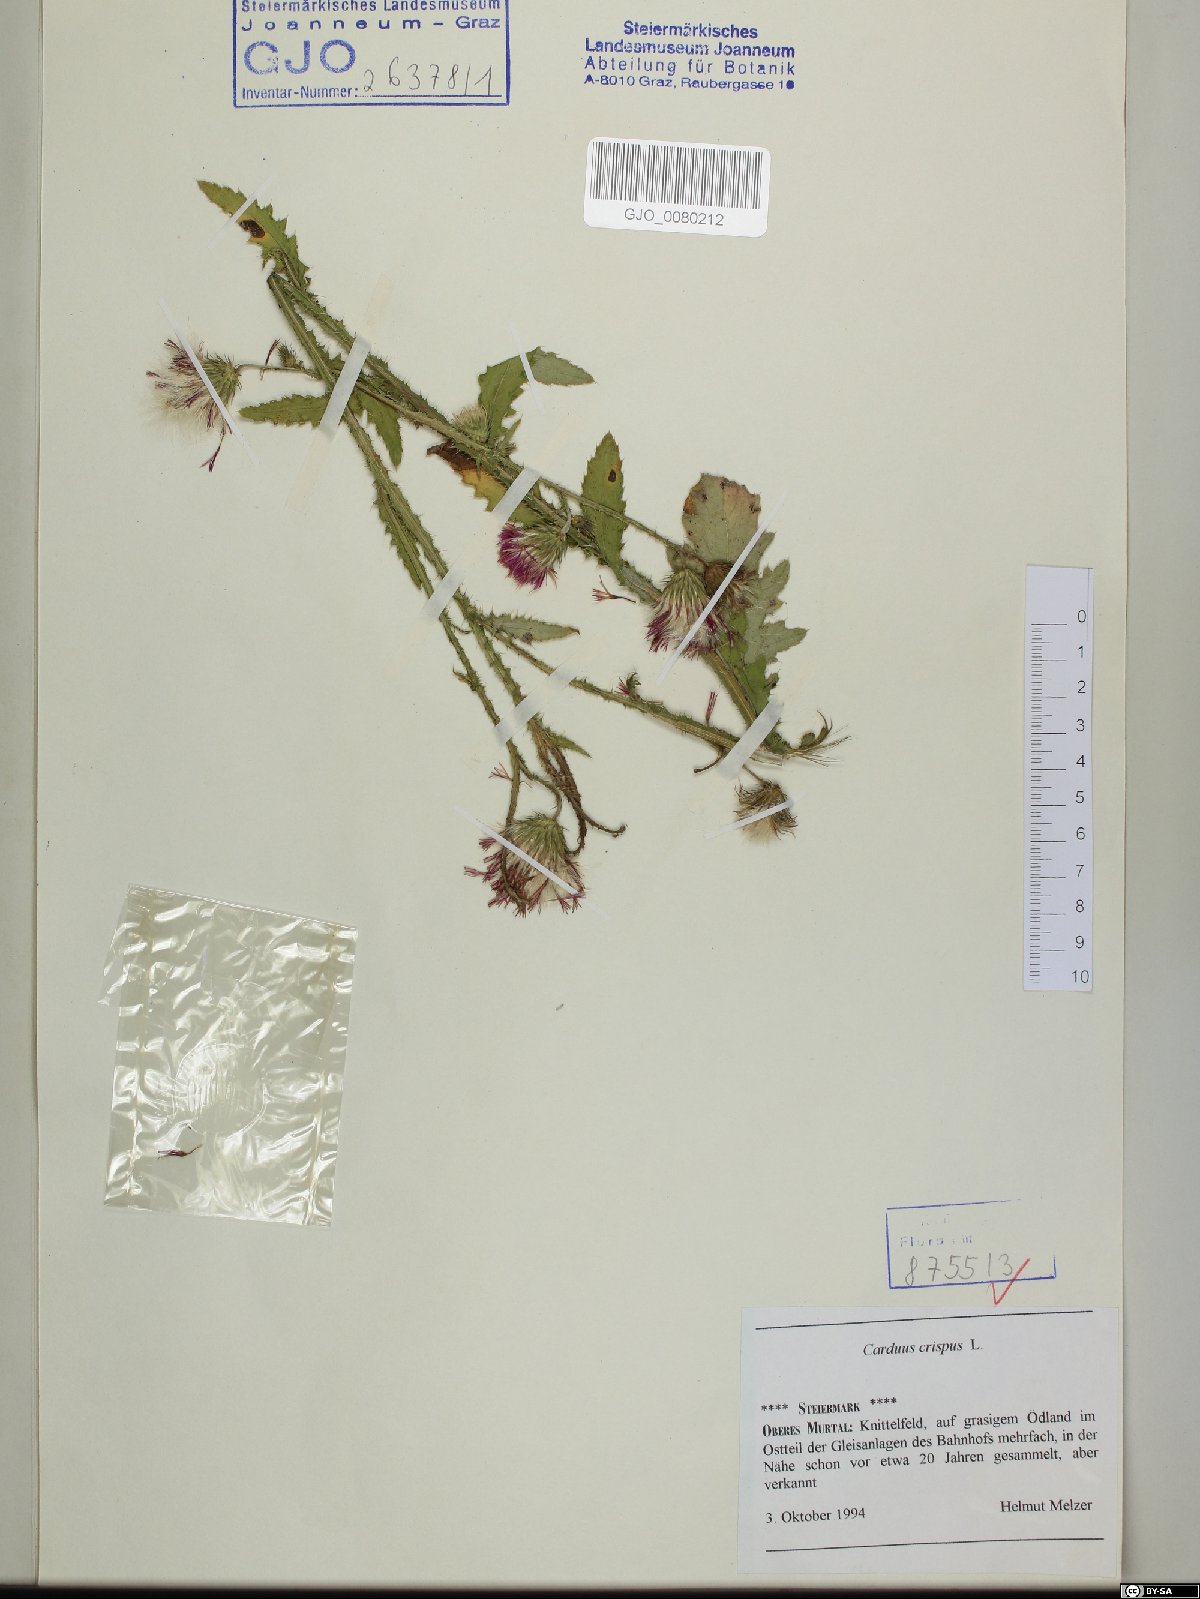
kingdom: Plantae
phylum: Tracheophyta
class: Magnoliopsida
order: Asterales
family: Asteraceae
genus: Carduus
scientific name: Carduus crispus
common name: Welted thistle
